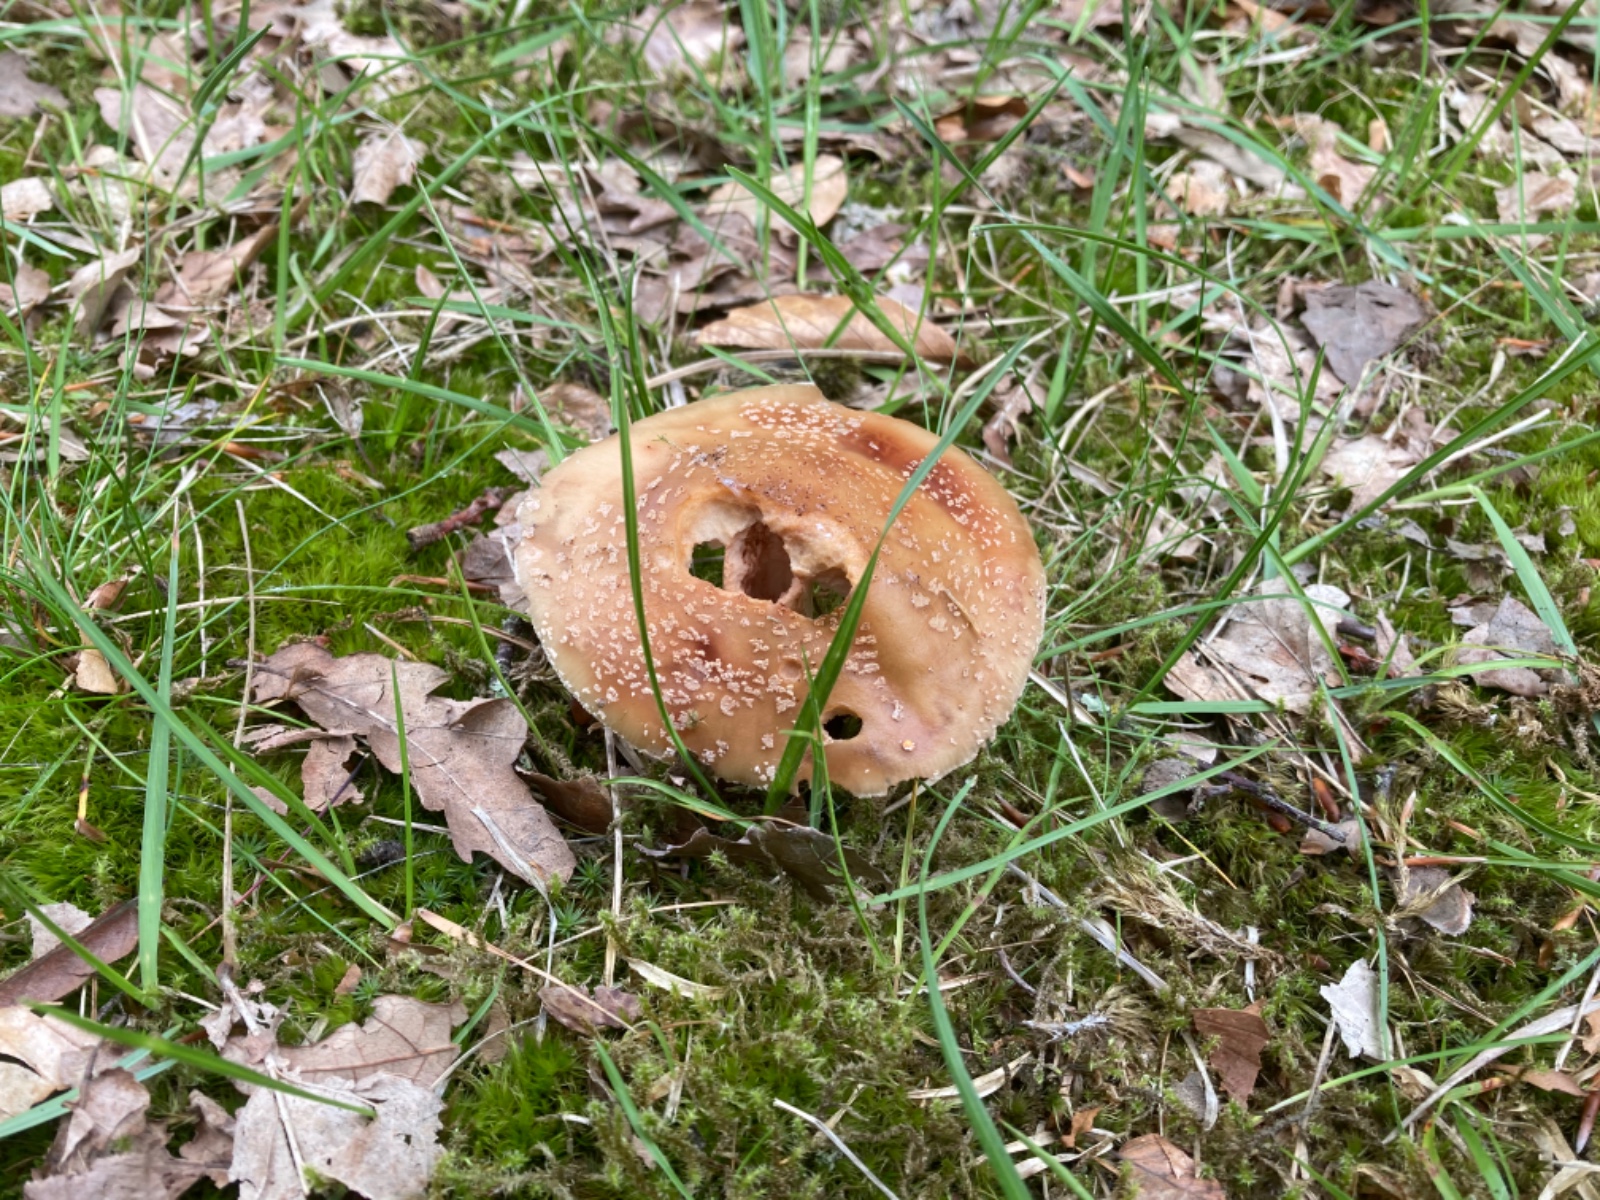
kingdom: Fungi
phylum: Basidiomycota
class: Agaricomycetes
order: Agaricales
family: Amanitaceae
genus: Amanita
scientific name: Amanita rubescens
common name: rødmende fluesvamp
